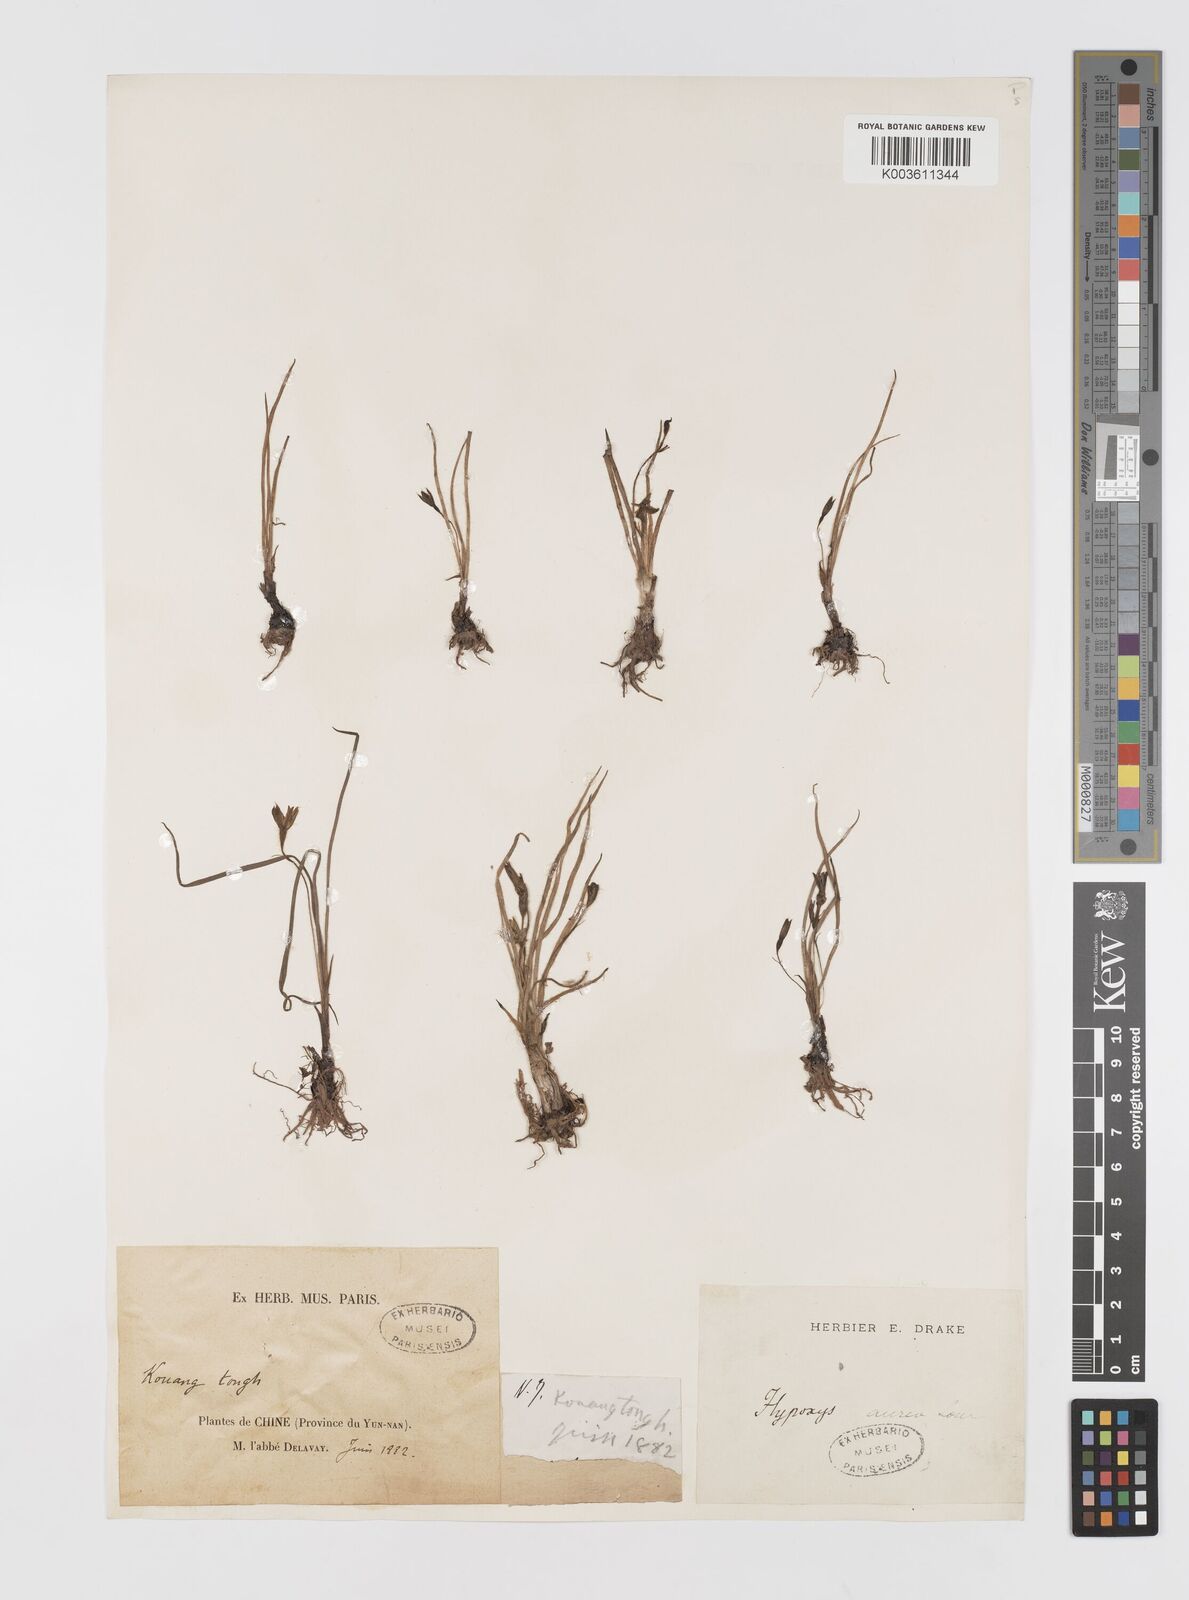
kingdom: Plantae
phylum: Tracheophyta
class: Liliopsida
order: Asparagales
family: Hypoxidaceae
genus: Hypoxis
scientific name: Hypoxis aurea
